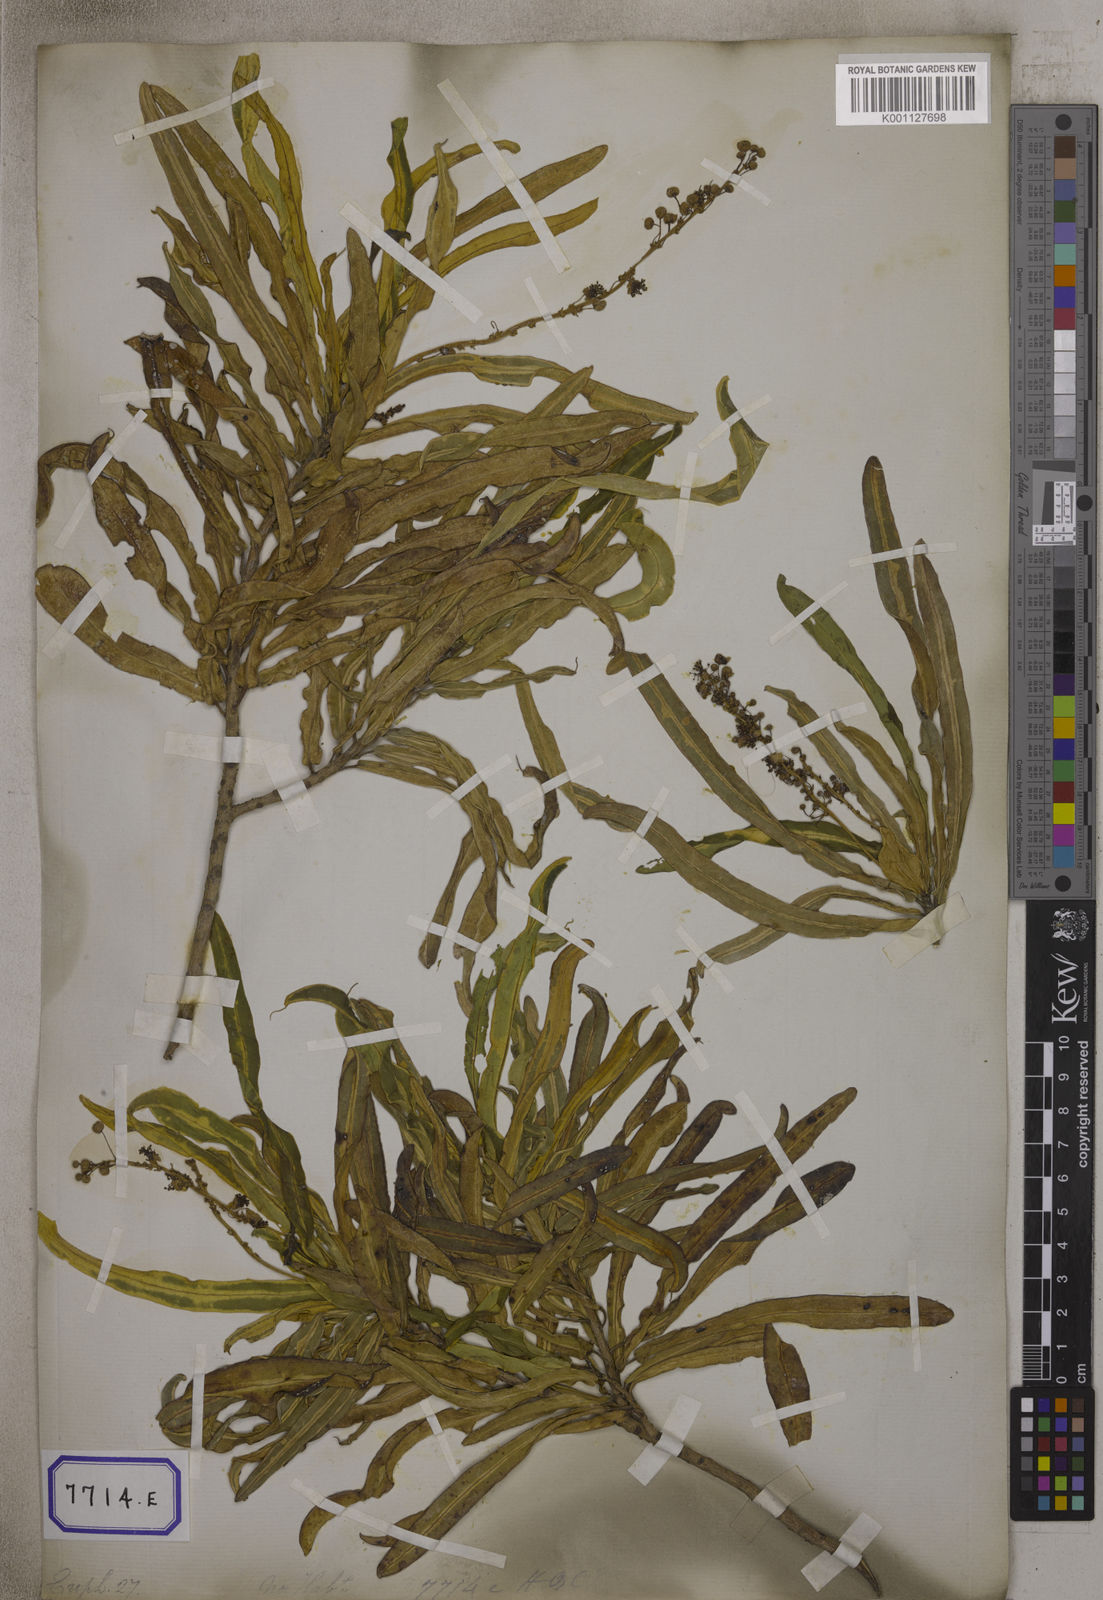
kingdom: Plantae
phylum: Tracheophyta
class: Magnoliopsida
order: Malpighiales
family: Euphorbiaceae
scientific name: Euphorbiaceae
